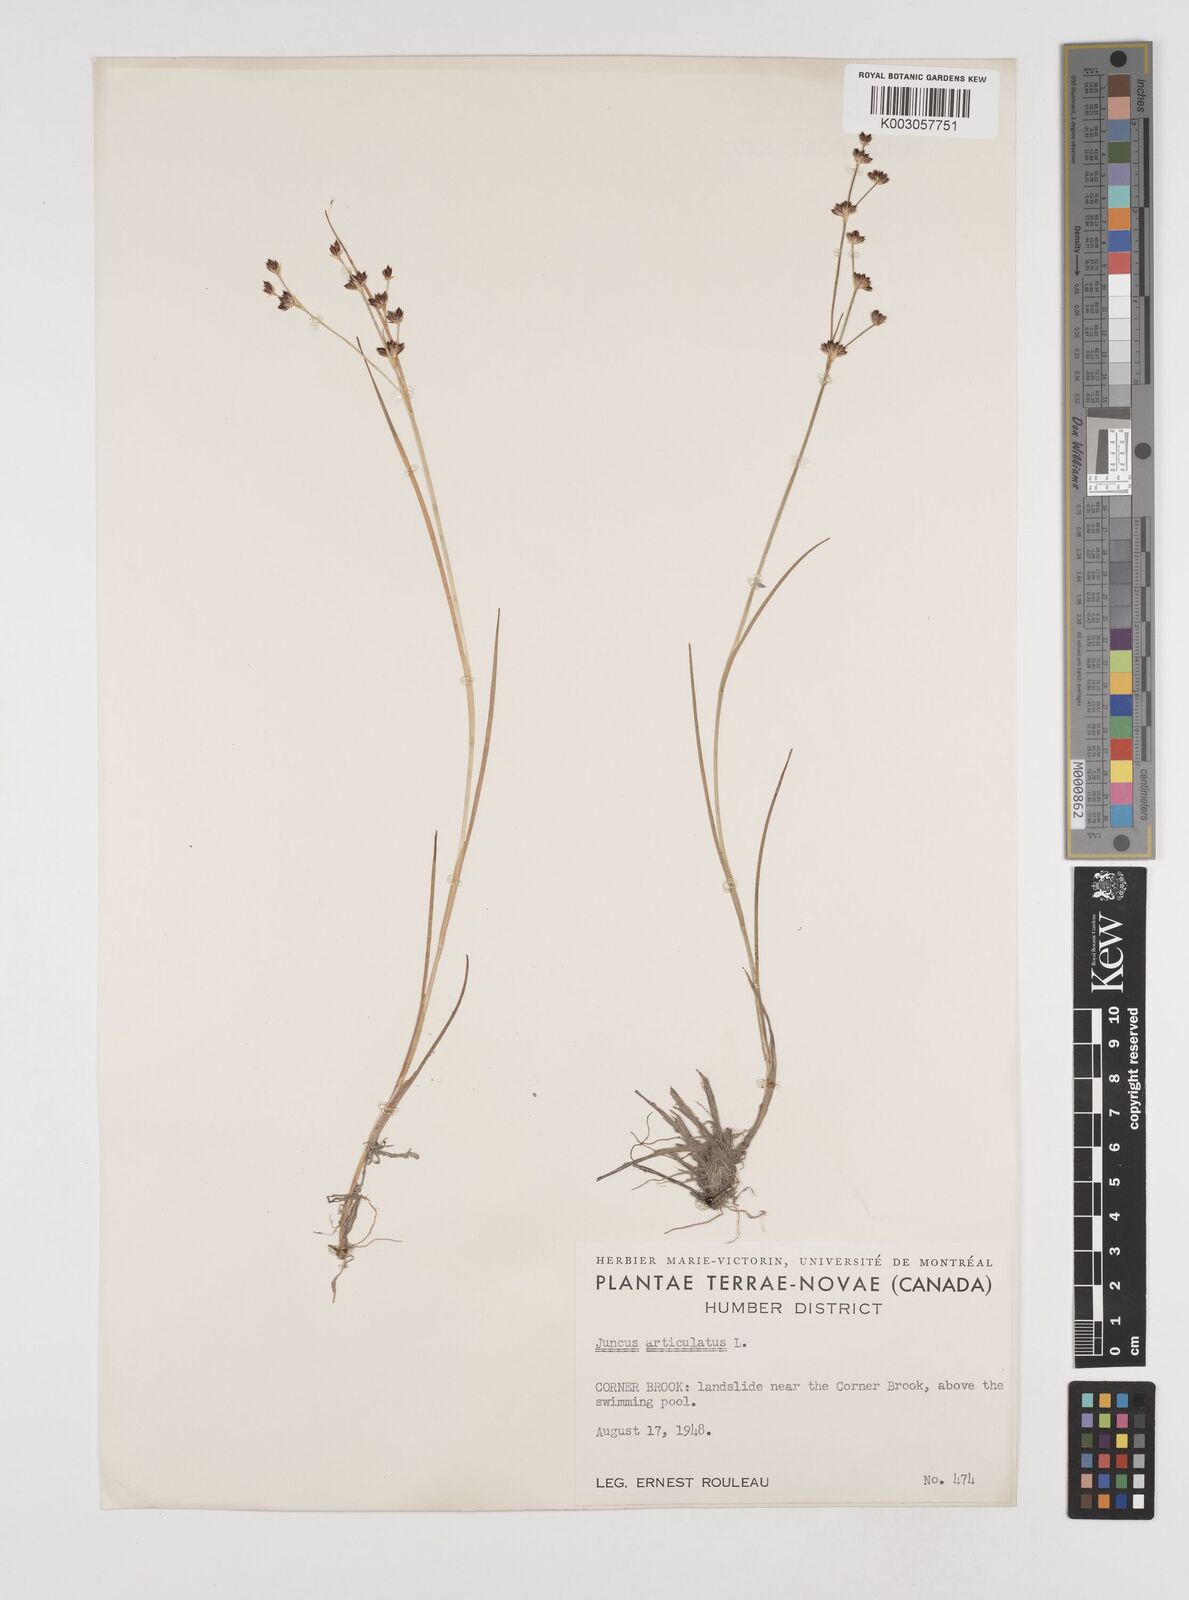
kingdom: Plantae
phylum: Tracheophyta
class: Liliopsida
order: Poales
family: Juncaceae
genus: Juncus
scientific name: Juncus articulatus
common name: Jointed rush
